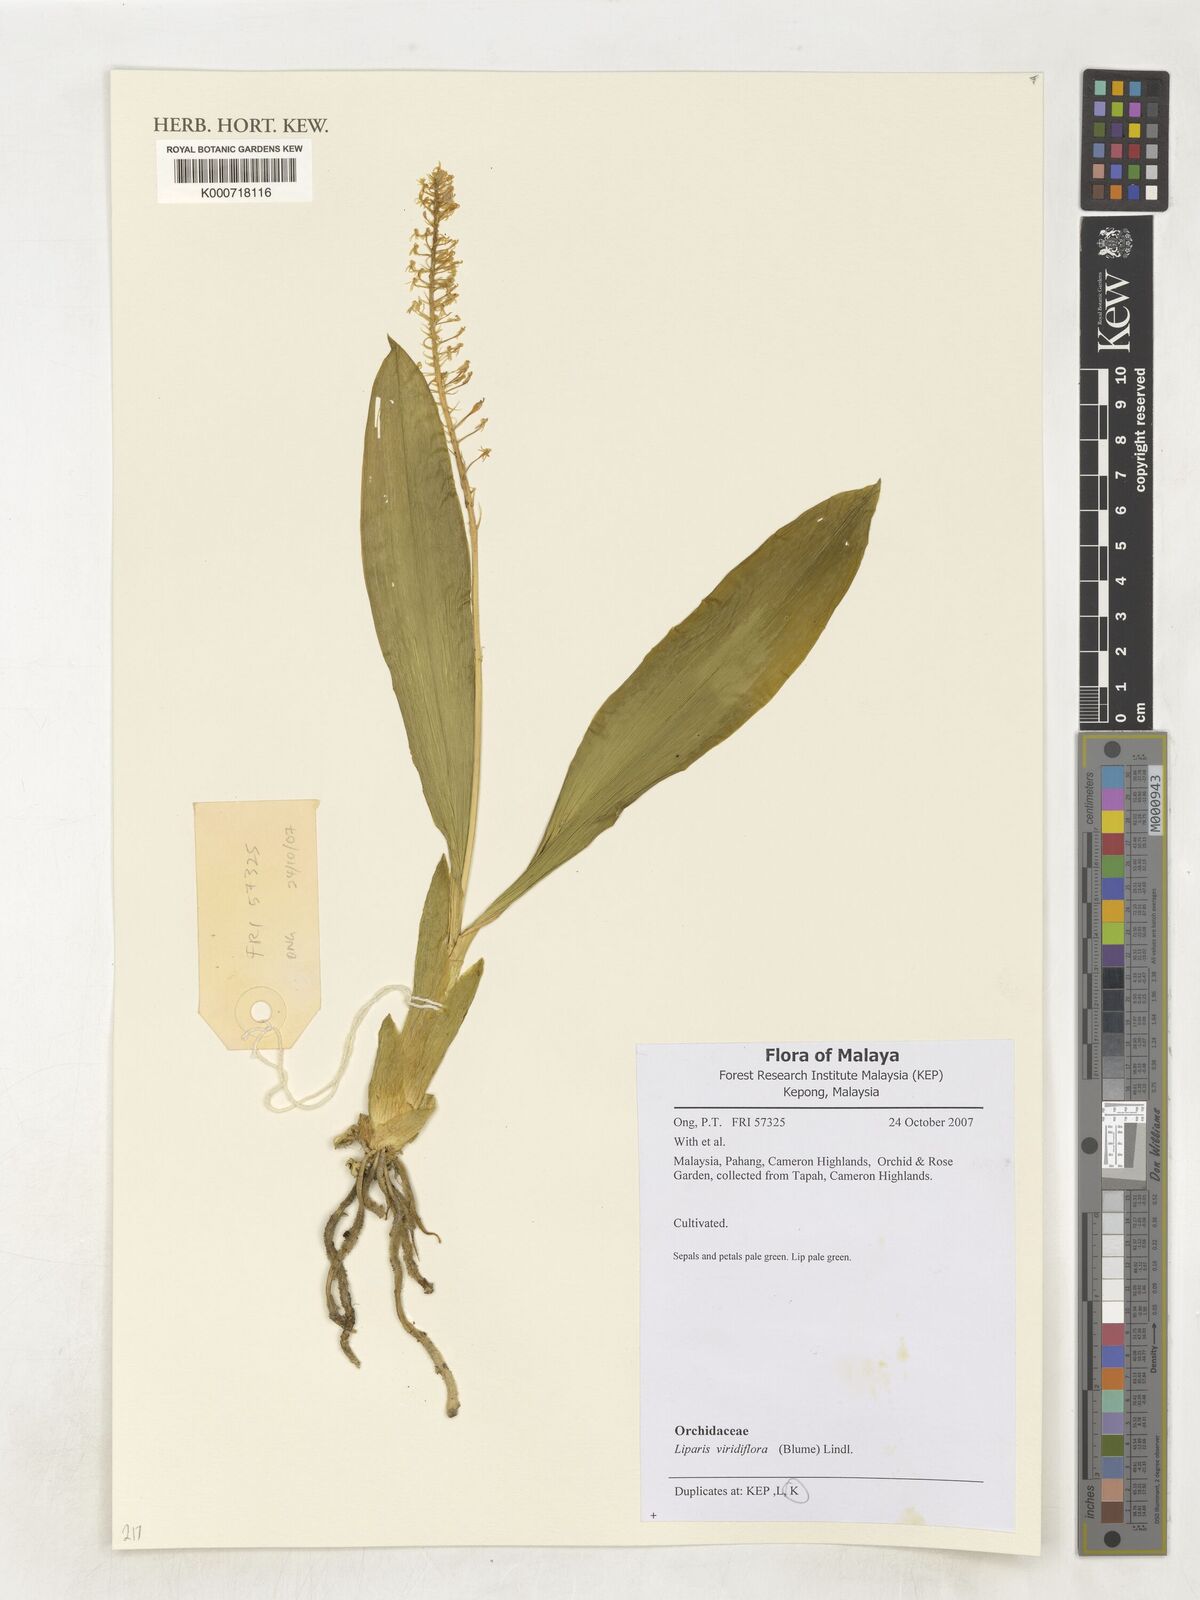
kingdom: Plantae
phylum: Tracheophyta
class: Liliopsida
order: Asparagales
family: Orchidaceae
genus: Liparis
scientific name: Liparis viridiflora
